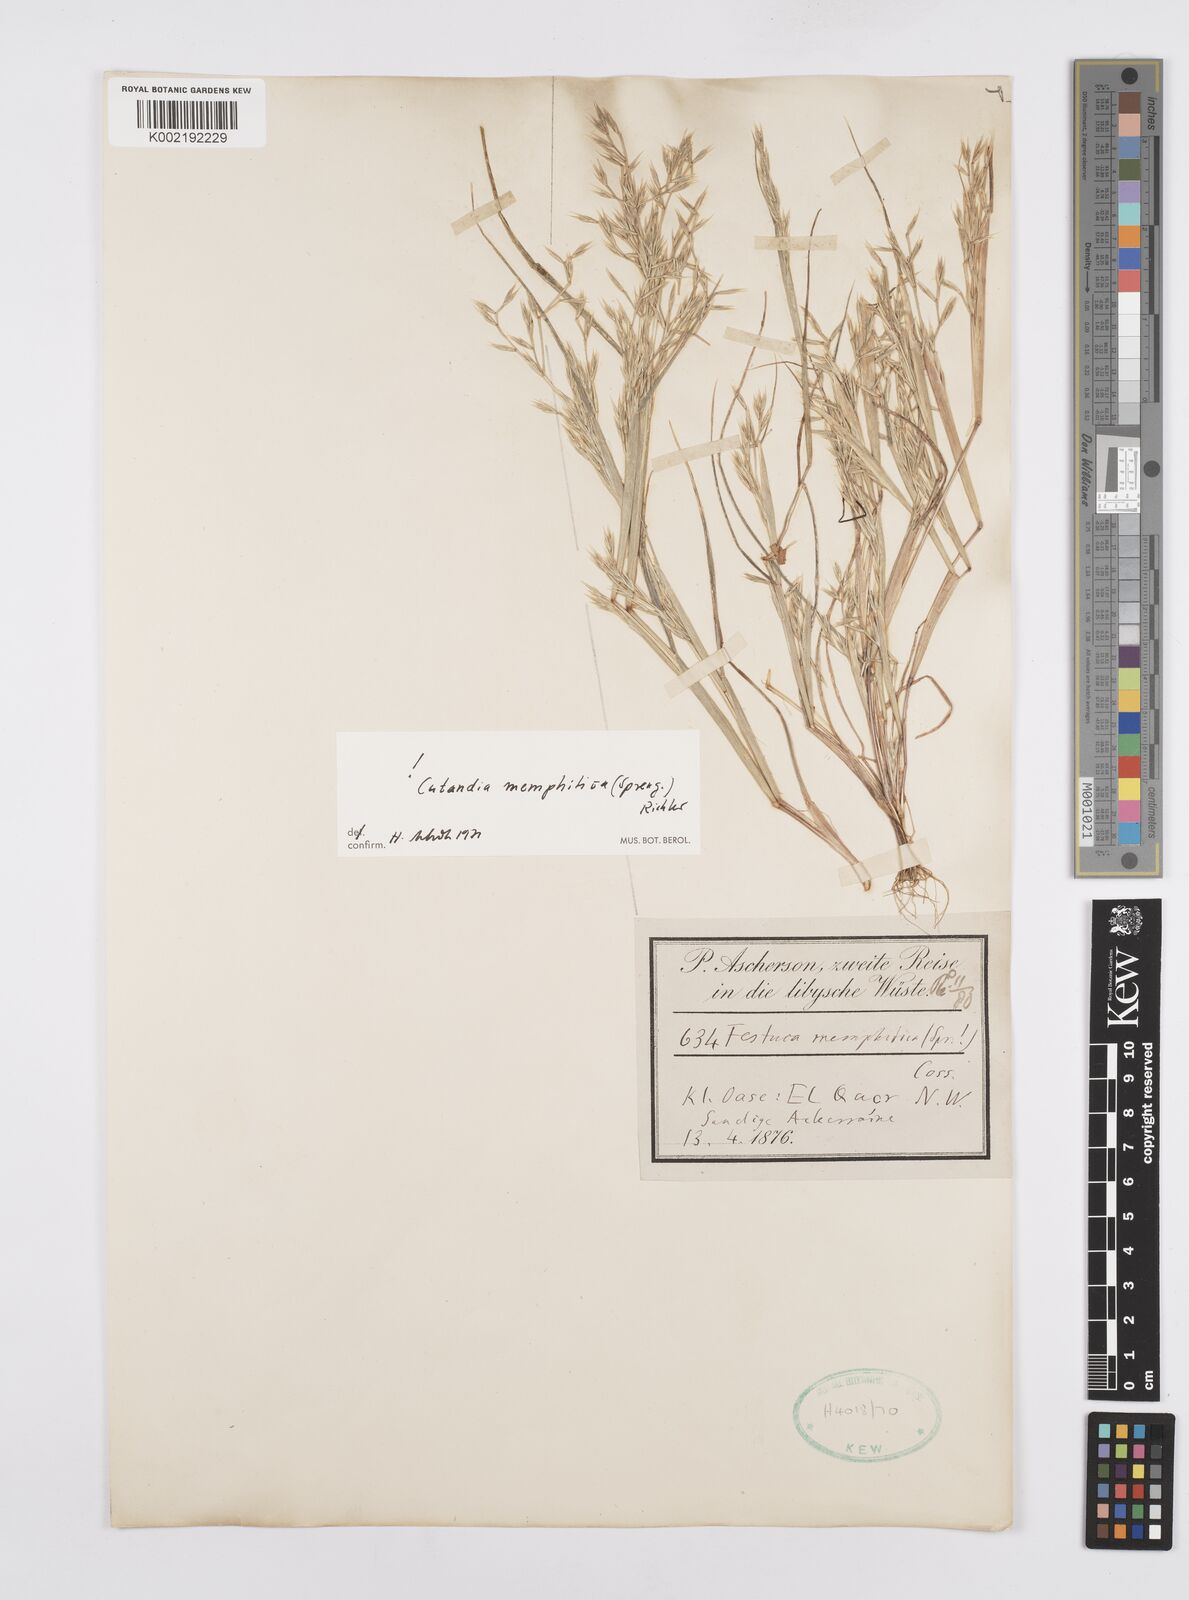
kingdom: Plantae
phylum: Tracheophyta
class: Liliopsida
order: Poales
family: Poaceae
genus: Cutandia
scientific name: Cutandia memphitica
